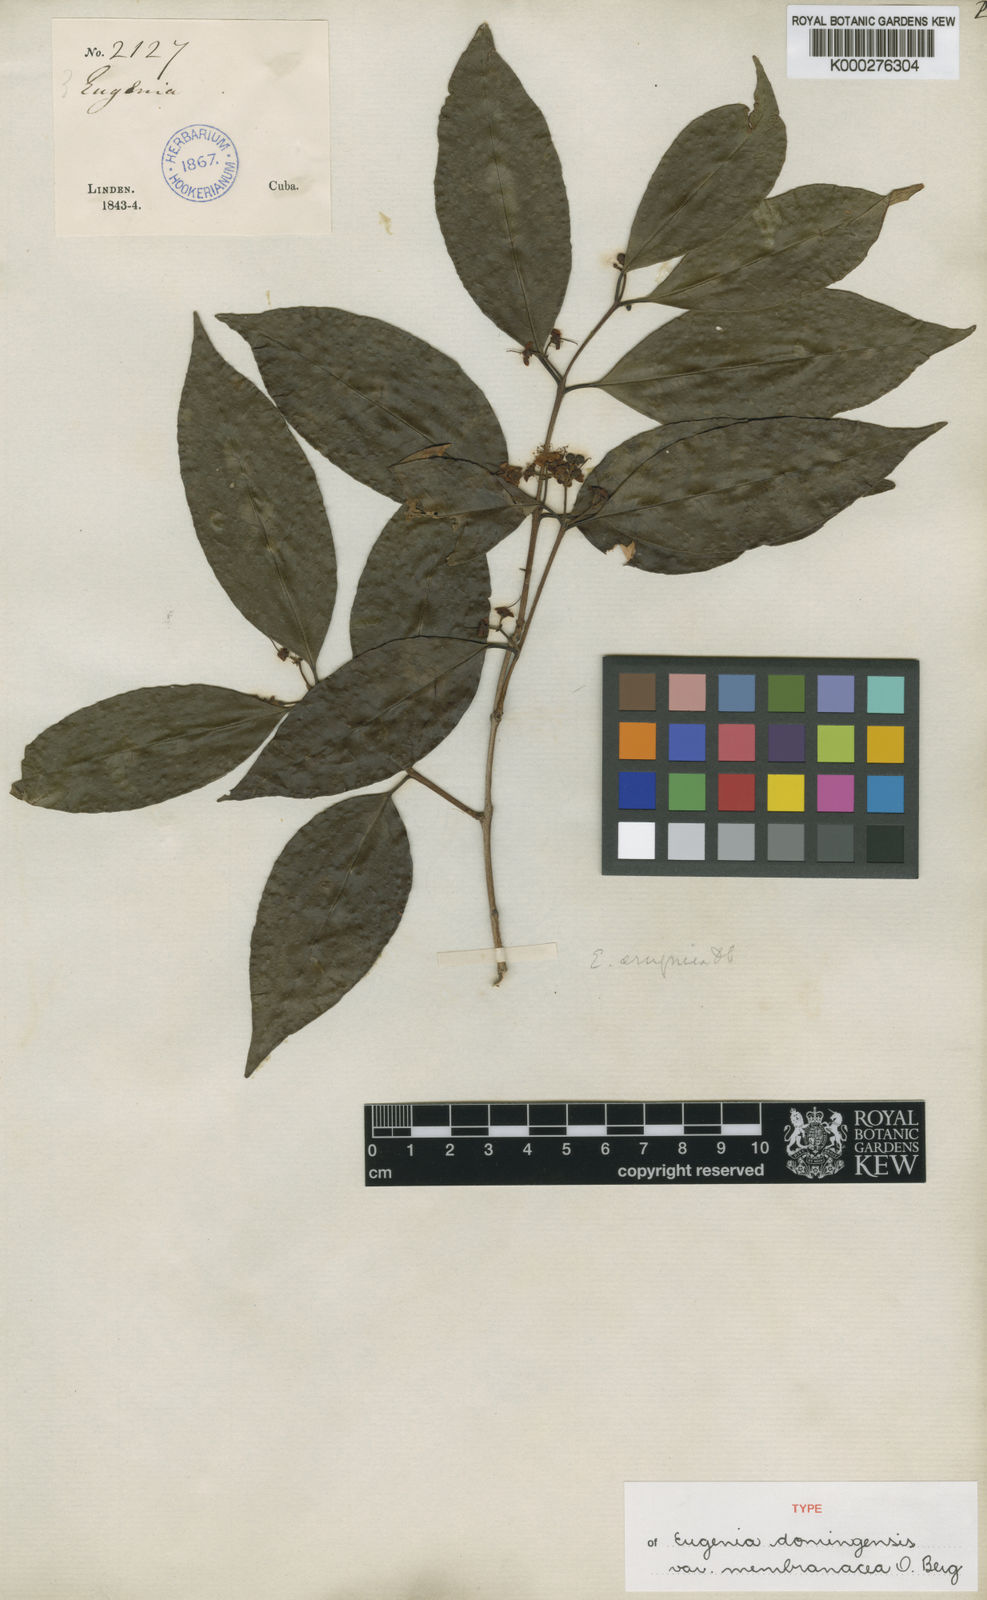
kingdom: Plantae
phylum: Tracheophyta
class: Magnoliopsida
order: Myrtales
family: Myrtaceae
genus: Eugenia
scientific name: Eugenia domingensis
